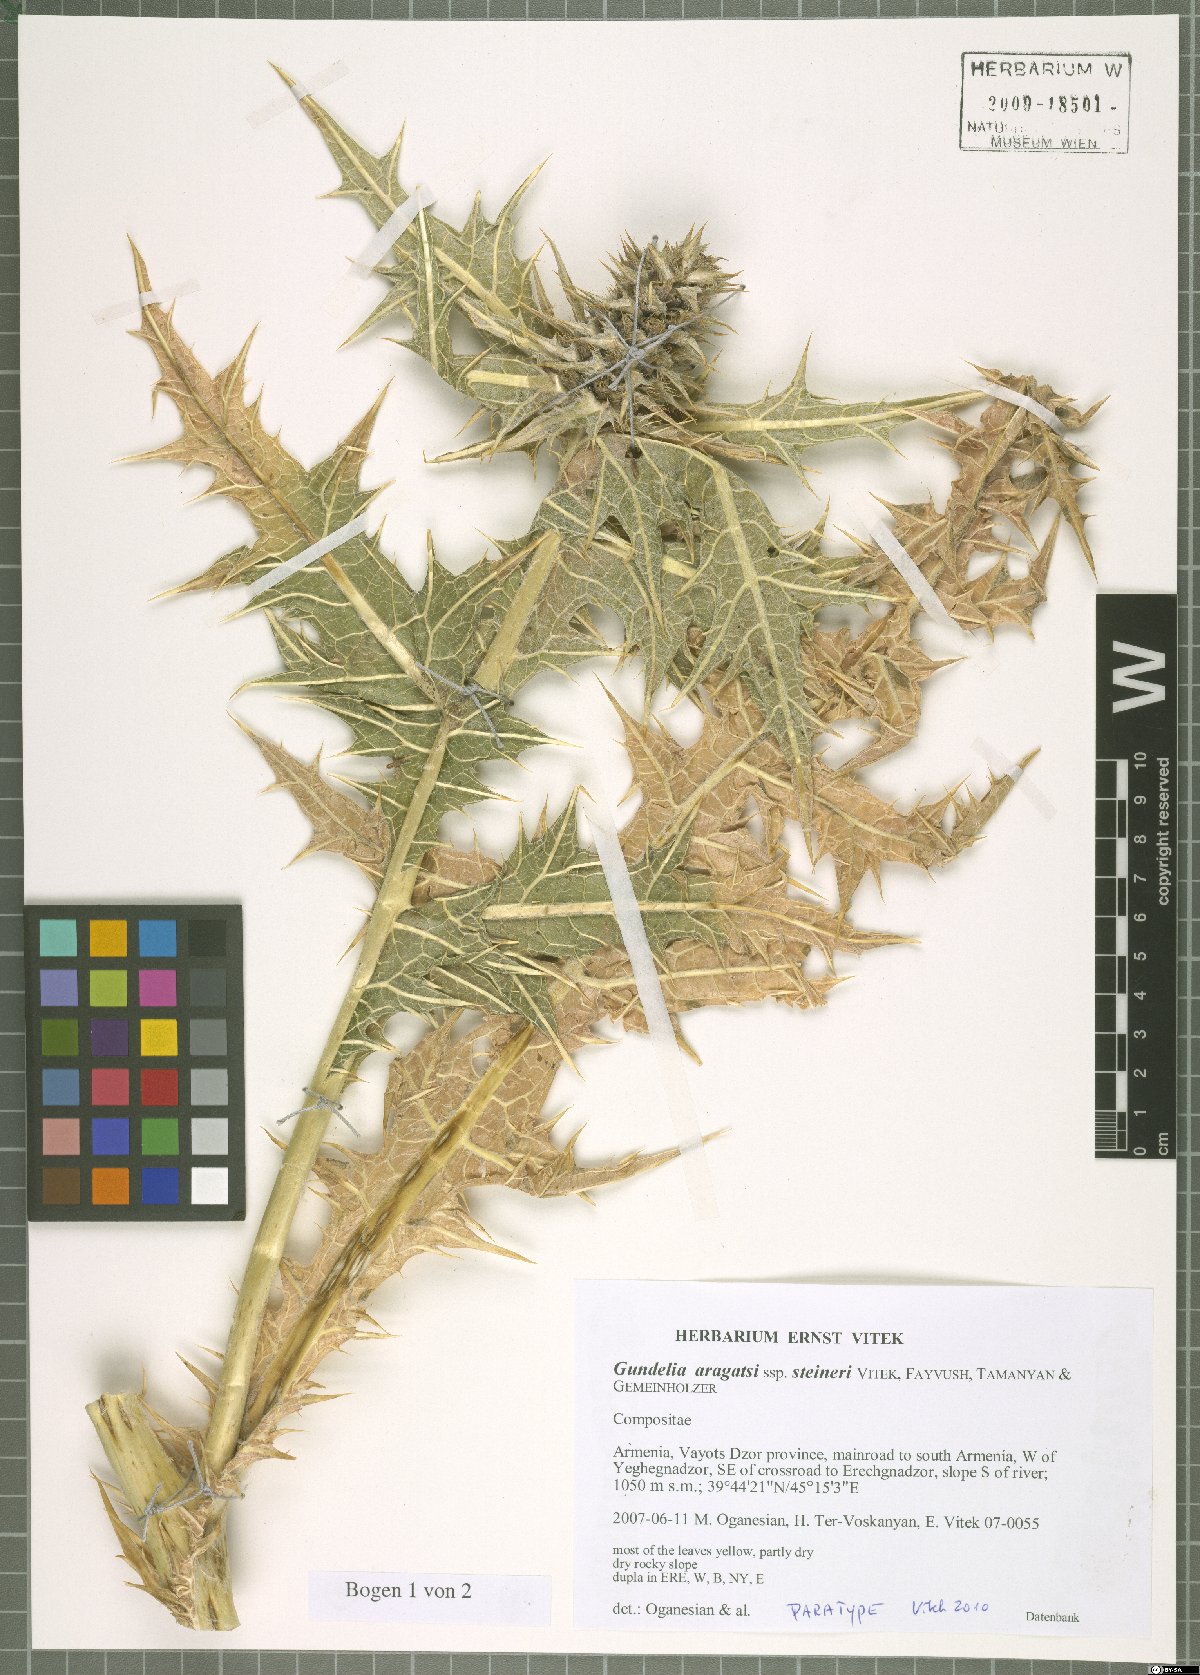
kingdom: Plantae
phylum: Tracheophyta
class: Magnoliopsida
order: Asterales
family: Asteraceae
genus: Gundelia
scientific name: Gundelia aragatsi
